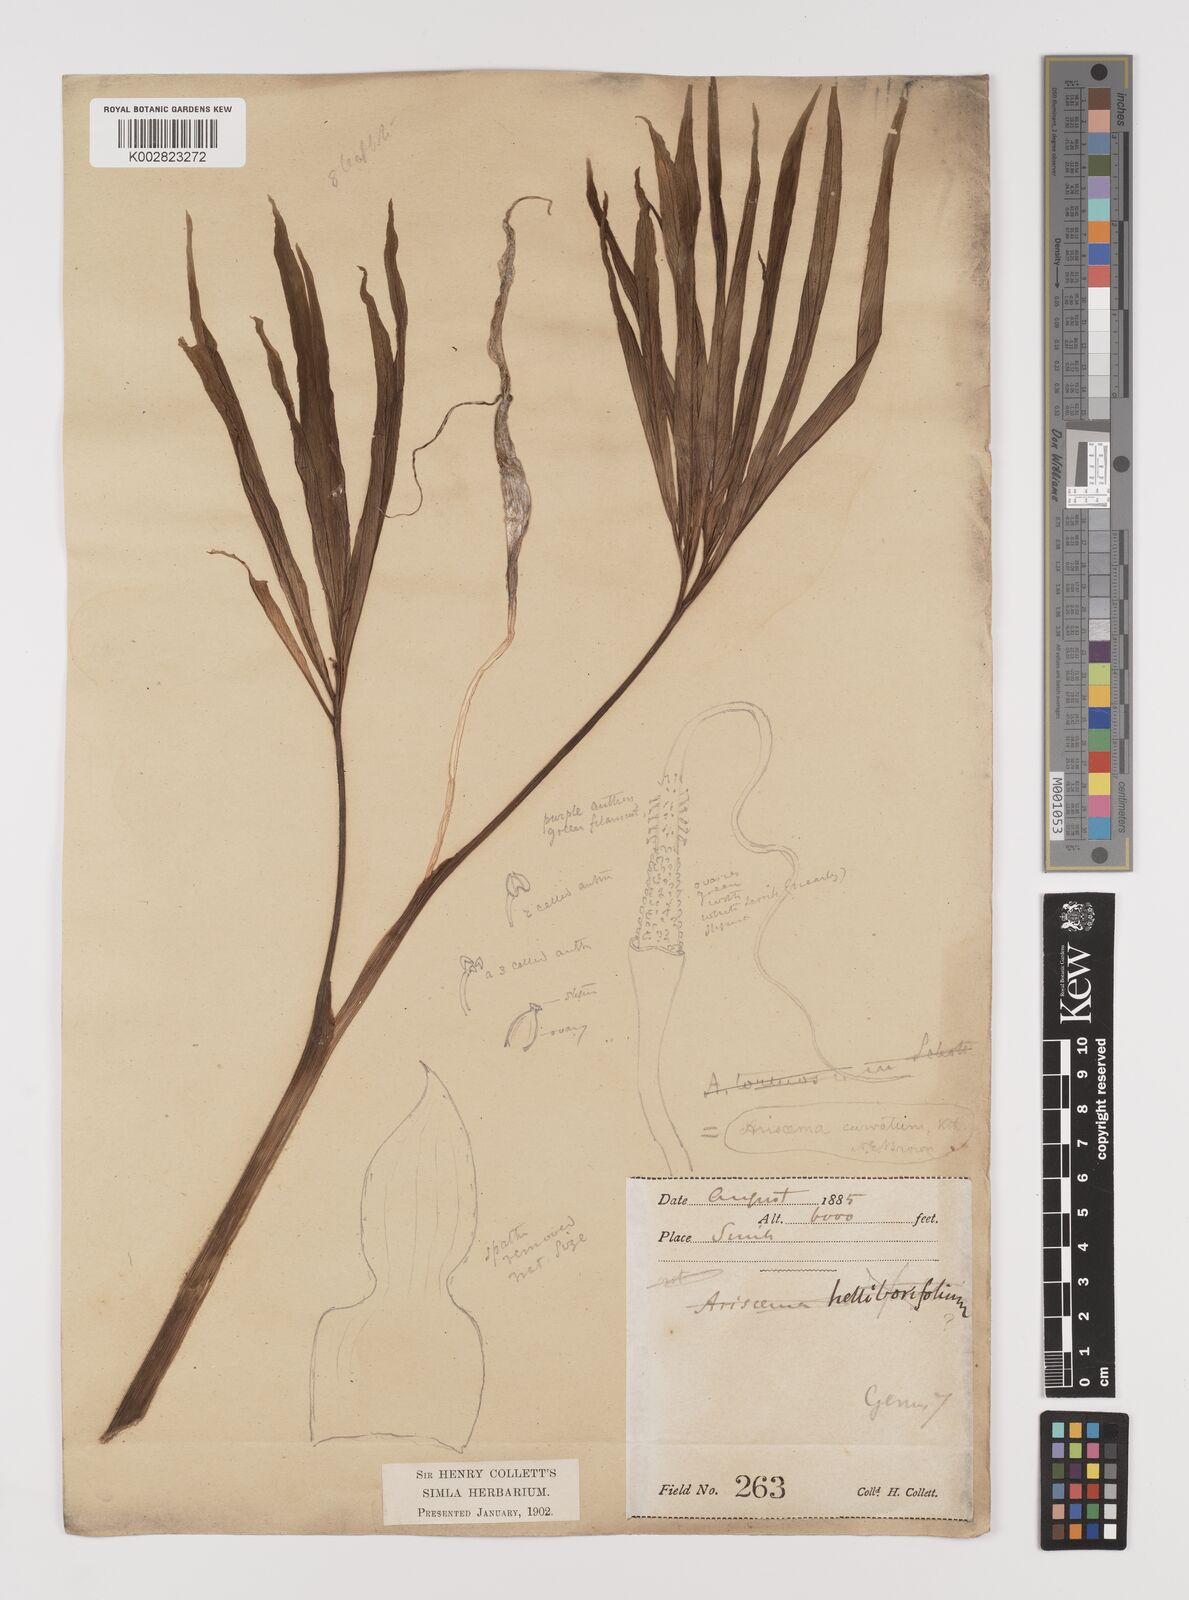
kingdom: Plantae
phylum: Tracheophyta
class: Liliopsida
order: Alismatales
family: Araceae
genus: Arisaema
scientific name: Arisaema tortuosum
